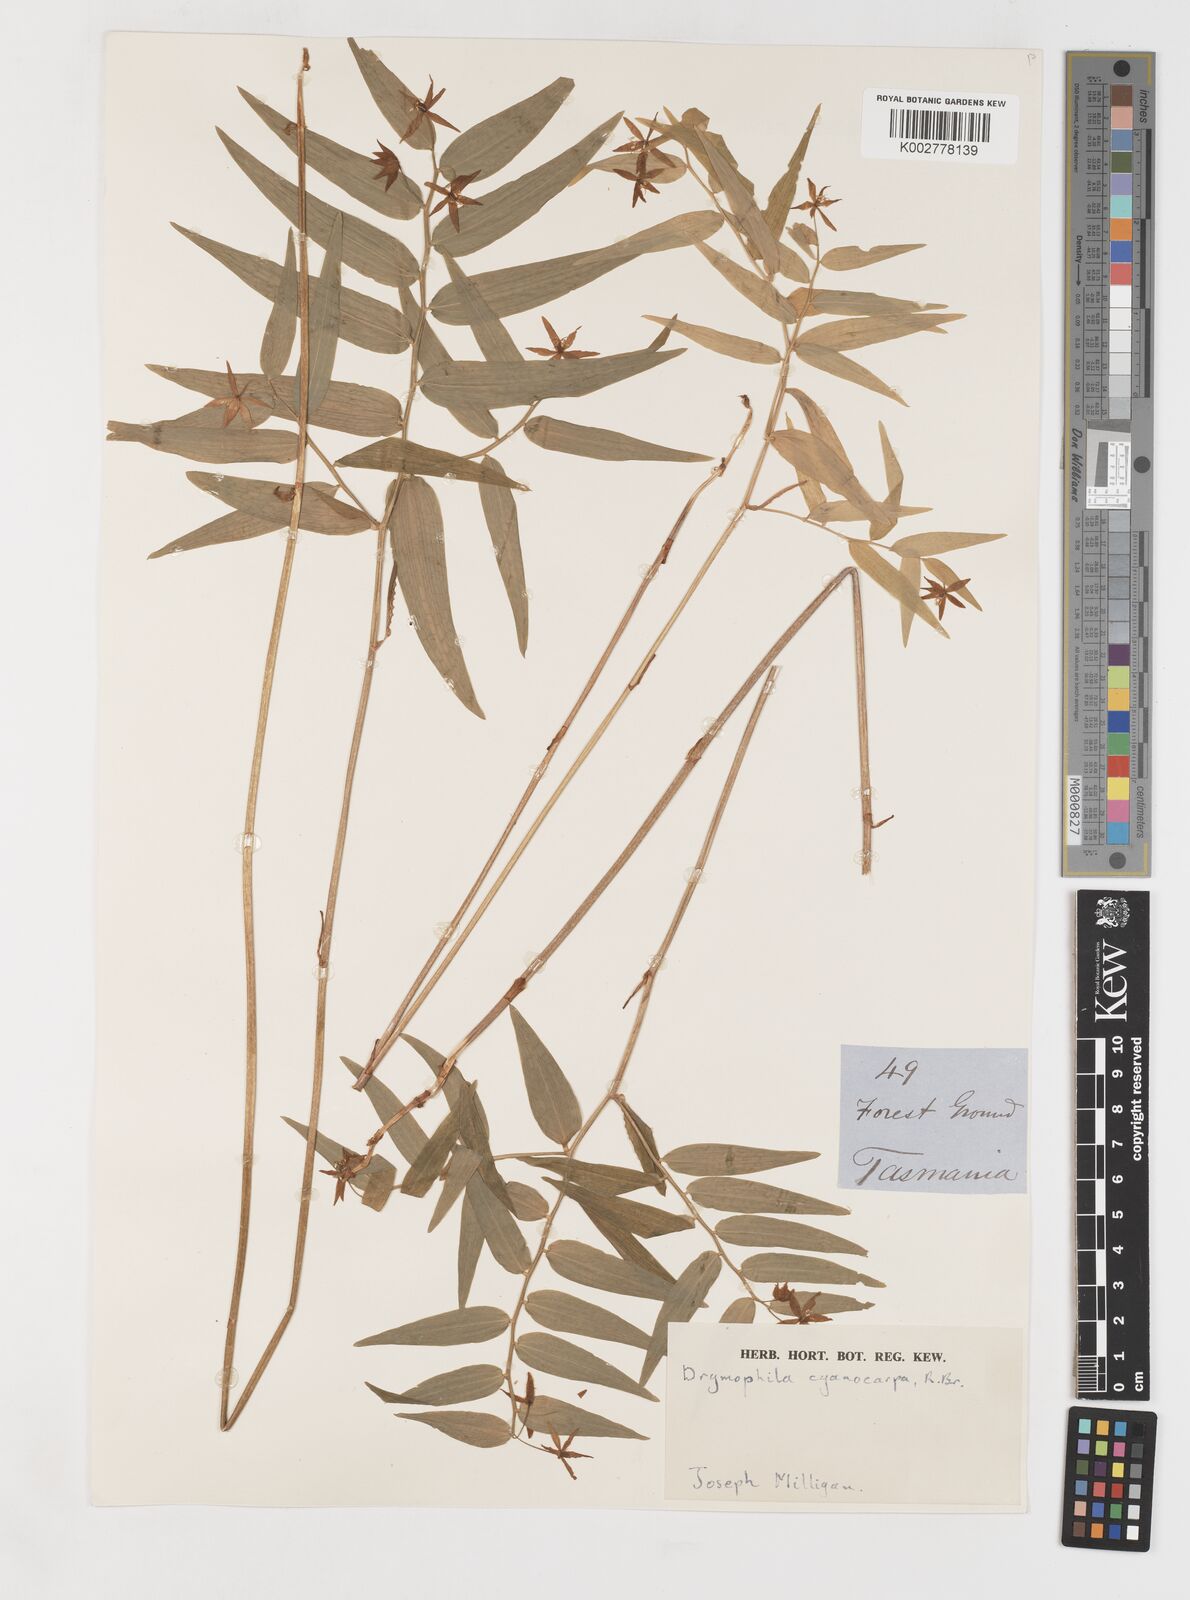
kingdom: Plantae
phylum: Tracheophyta
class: Liliopsida
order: Liliales
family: Alstroemeriaceae
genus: Drymophila
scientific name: Drymophila cyanocarpa
